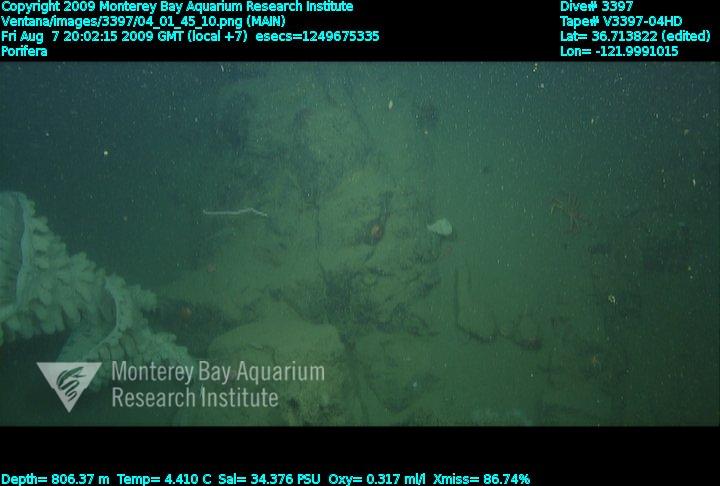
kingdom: Animalia
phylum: Porifera
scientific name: Porifera
